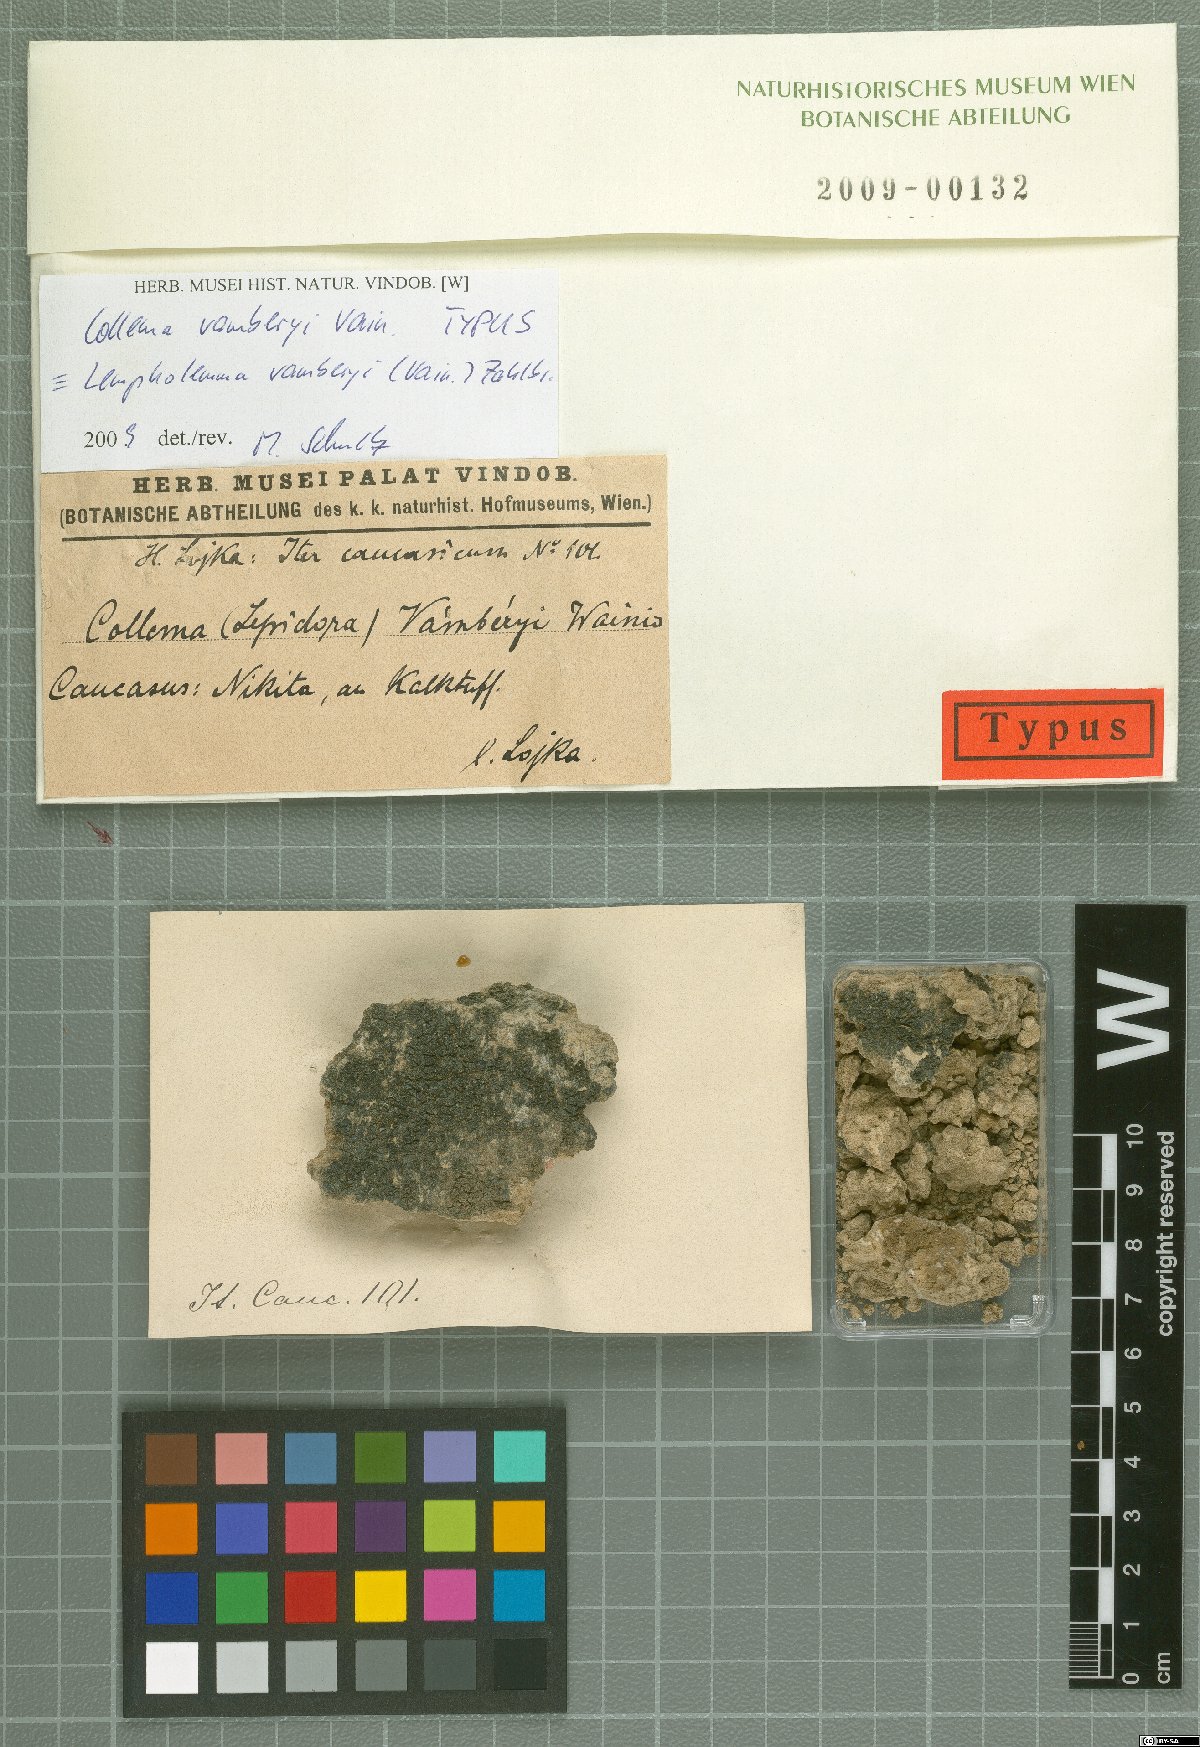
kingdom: Fungi
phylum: Ascomycota
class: Lecanoromycetes
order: Peltigerales
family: Collemataceae
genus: Collema
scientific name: Collema
